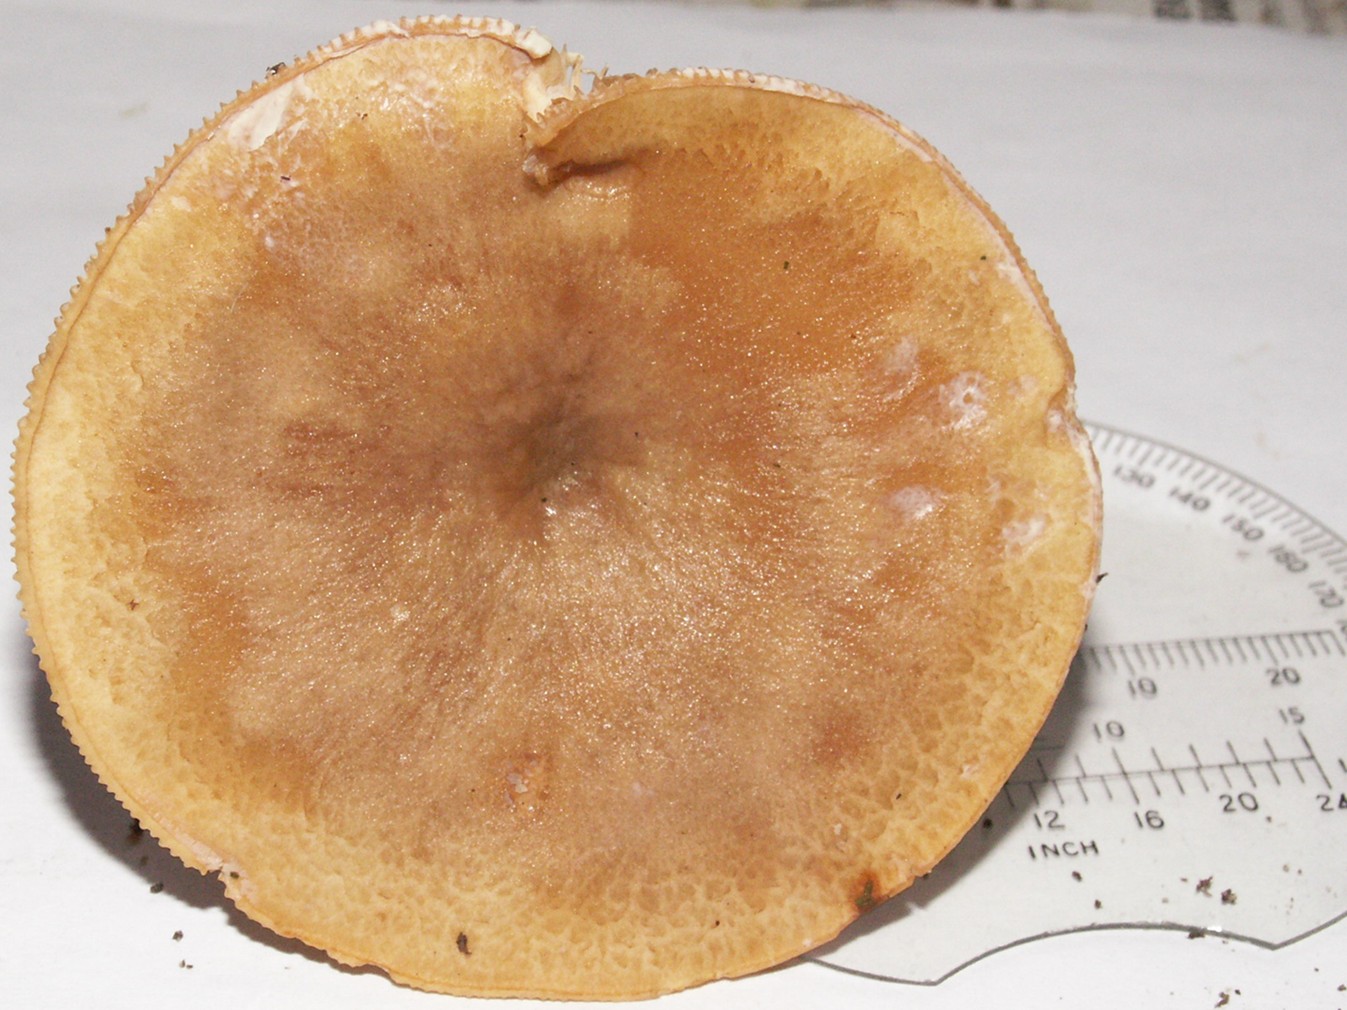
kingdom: Fungi
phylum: Basidiomycota
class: Agaricomycetes
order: Russulales
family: Russulaceae
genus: Lactarius
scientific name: Lactarius pyrogalus
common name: hassel-mælkehat
